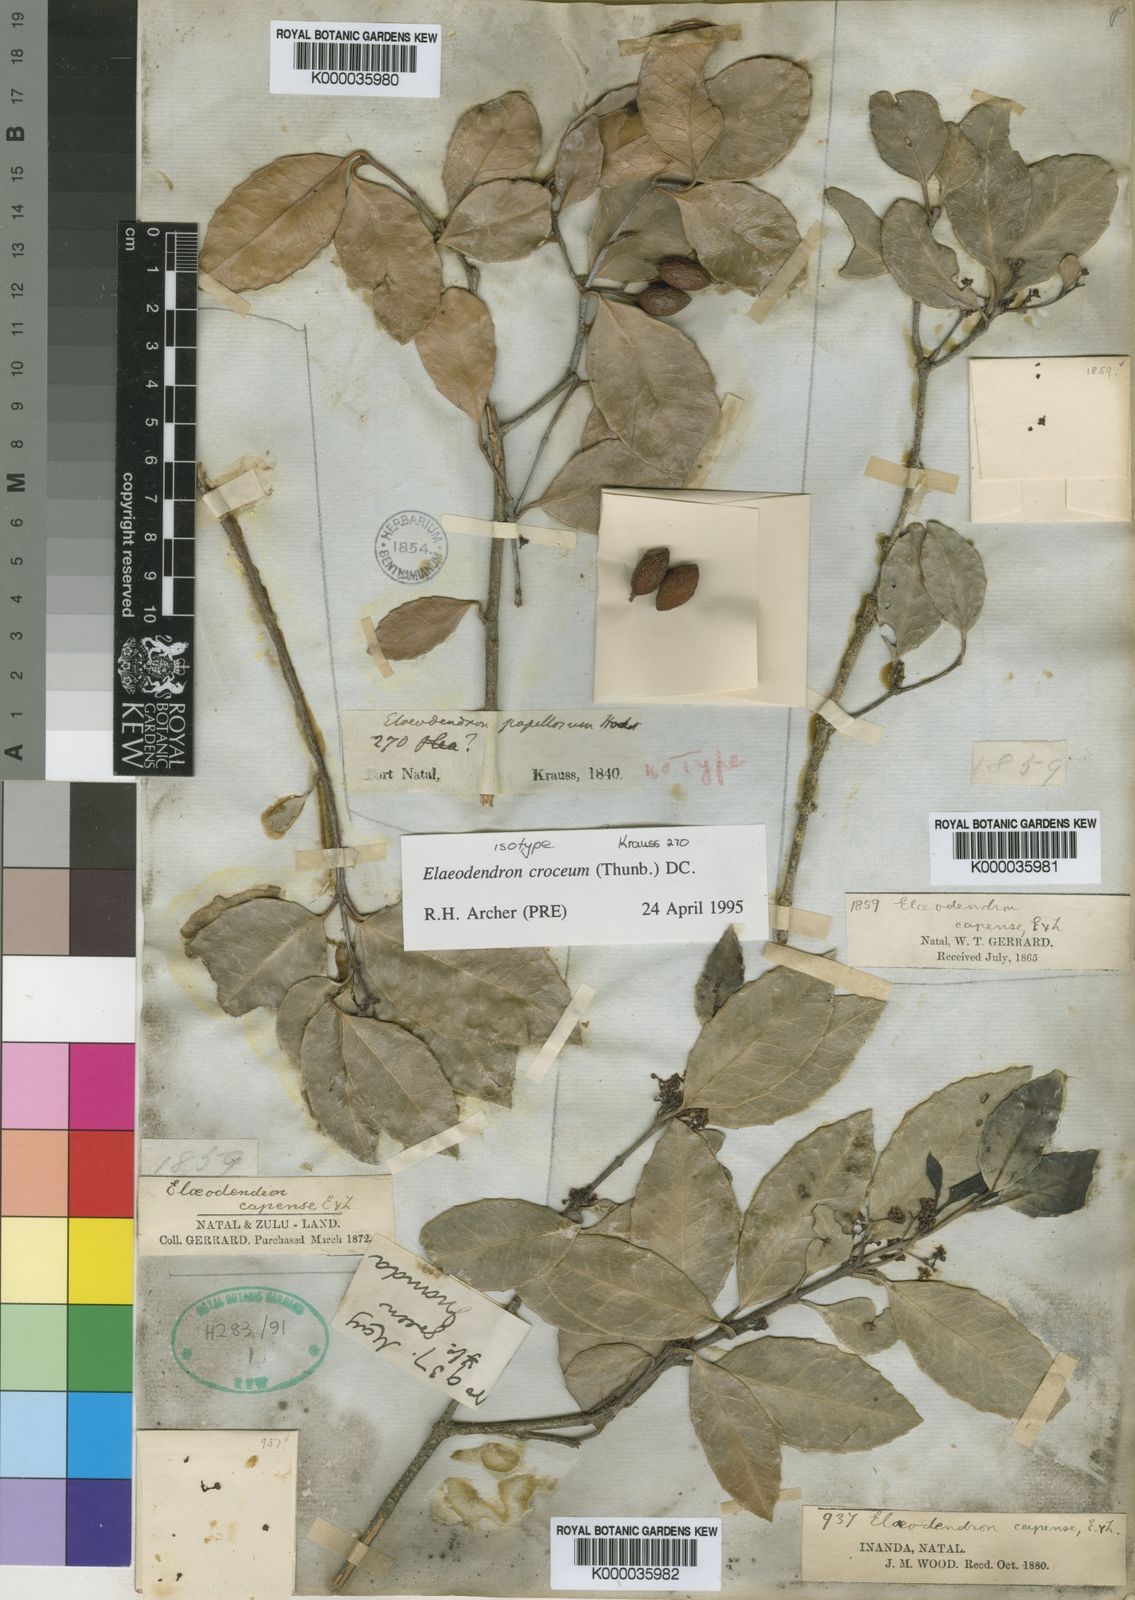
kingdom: Plantae
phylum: Tracheophyta
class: Magnoliopsida
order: Celastrales
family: Celastraceae
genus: Elaeodendron
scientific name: Elaeodendron croceum
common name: Saffron
